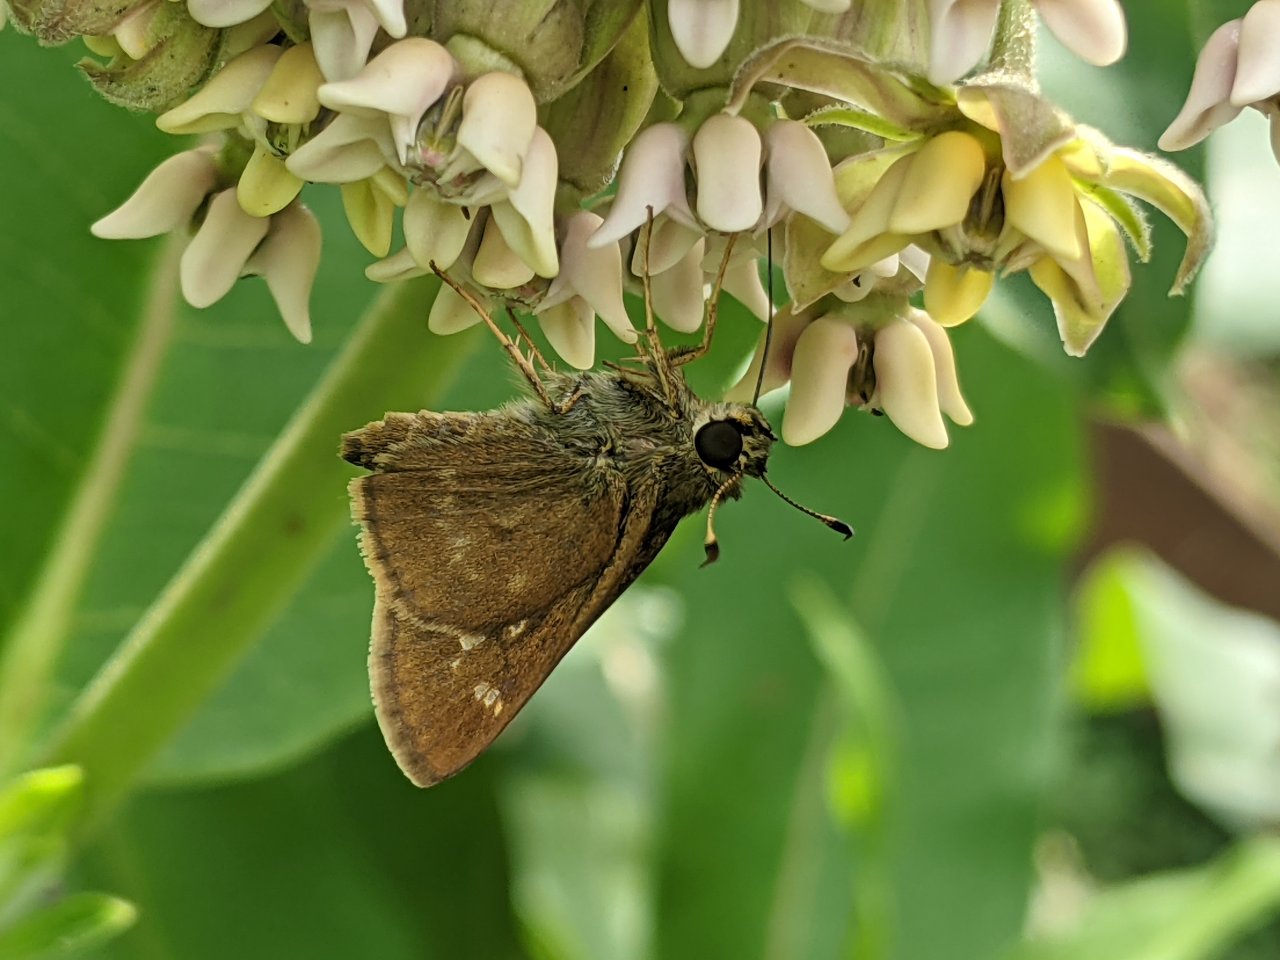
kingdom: Animalia
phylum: Arthropoda
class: Insecta
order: Lepidoptera
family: Hesperiidae
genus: Vernia
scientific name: Vernia verna
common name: Little Glassywing
